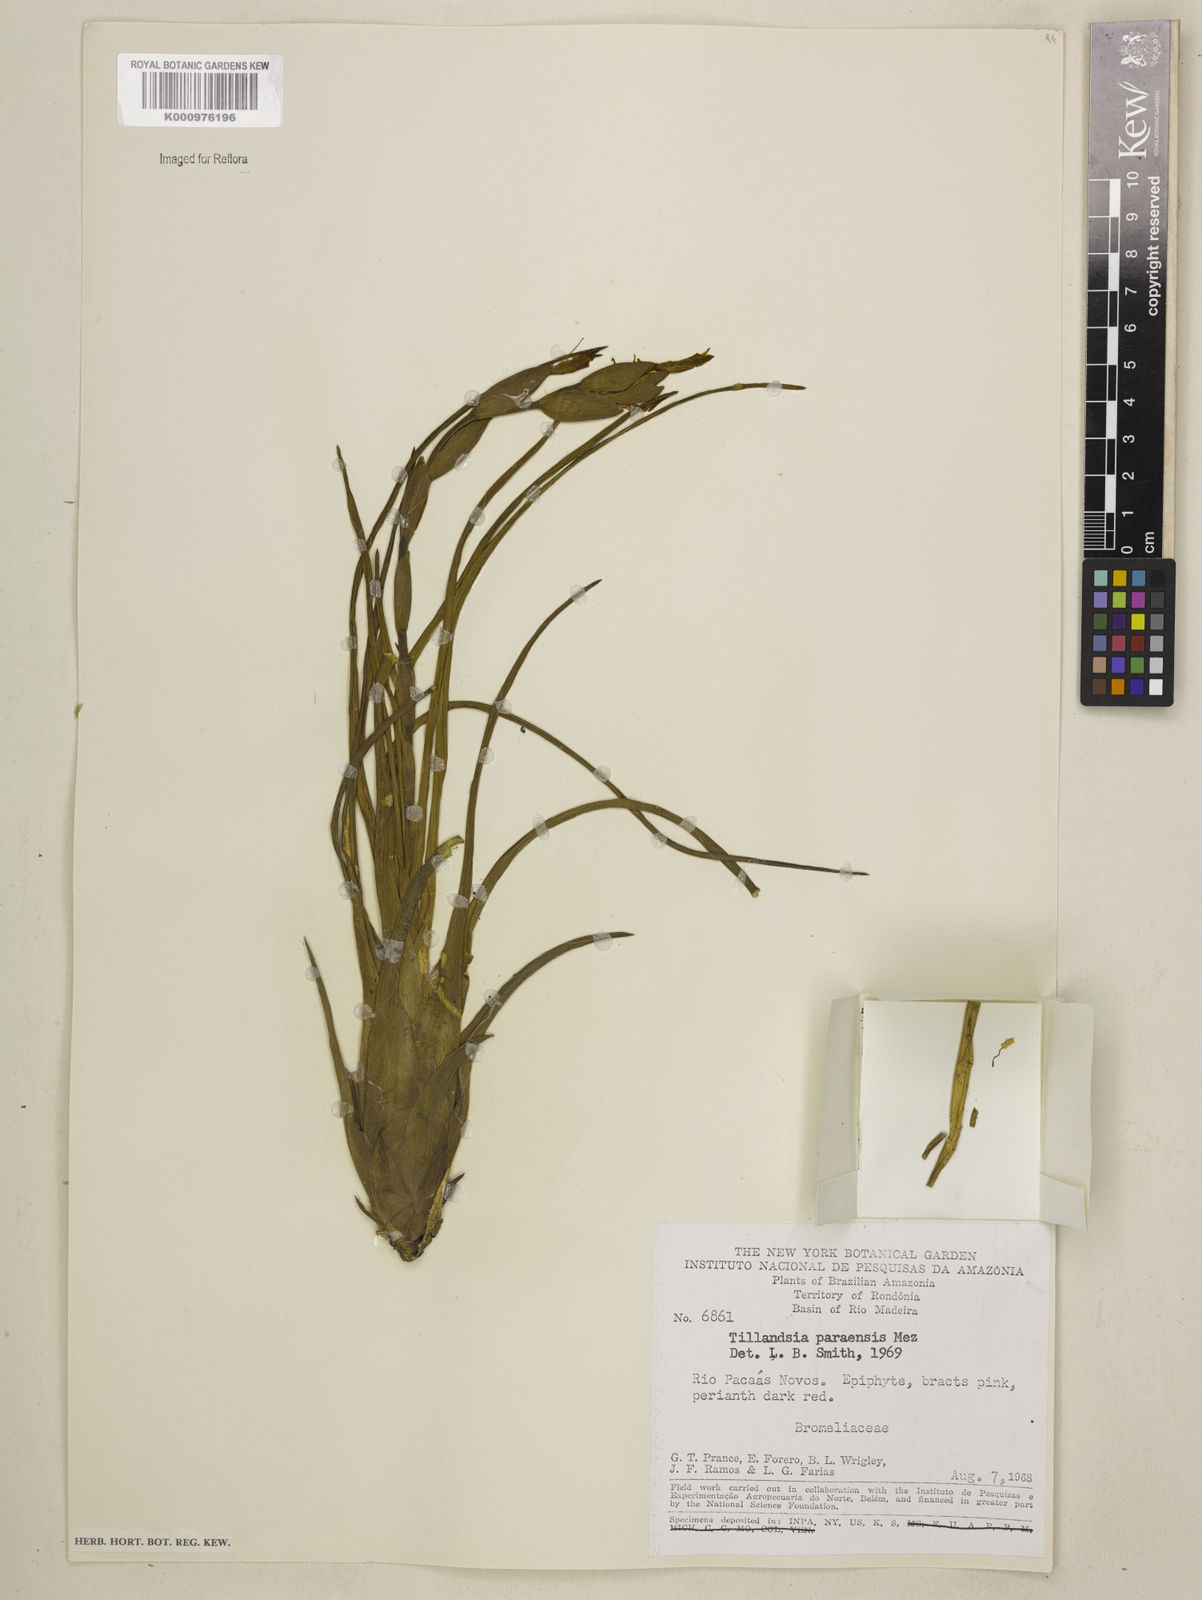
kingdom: Plantae
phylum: Tracheophyta
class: Liliopsida
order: Poales
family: Bromeliaceae
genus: Tillandsia
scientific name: Tillandsia paraensis
